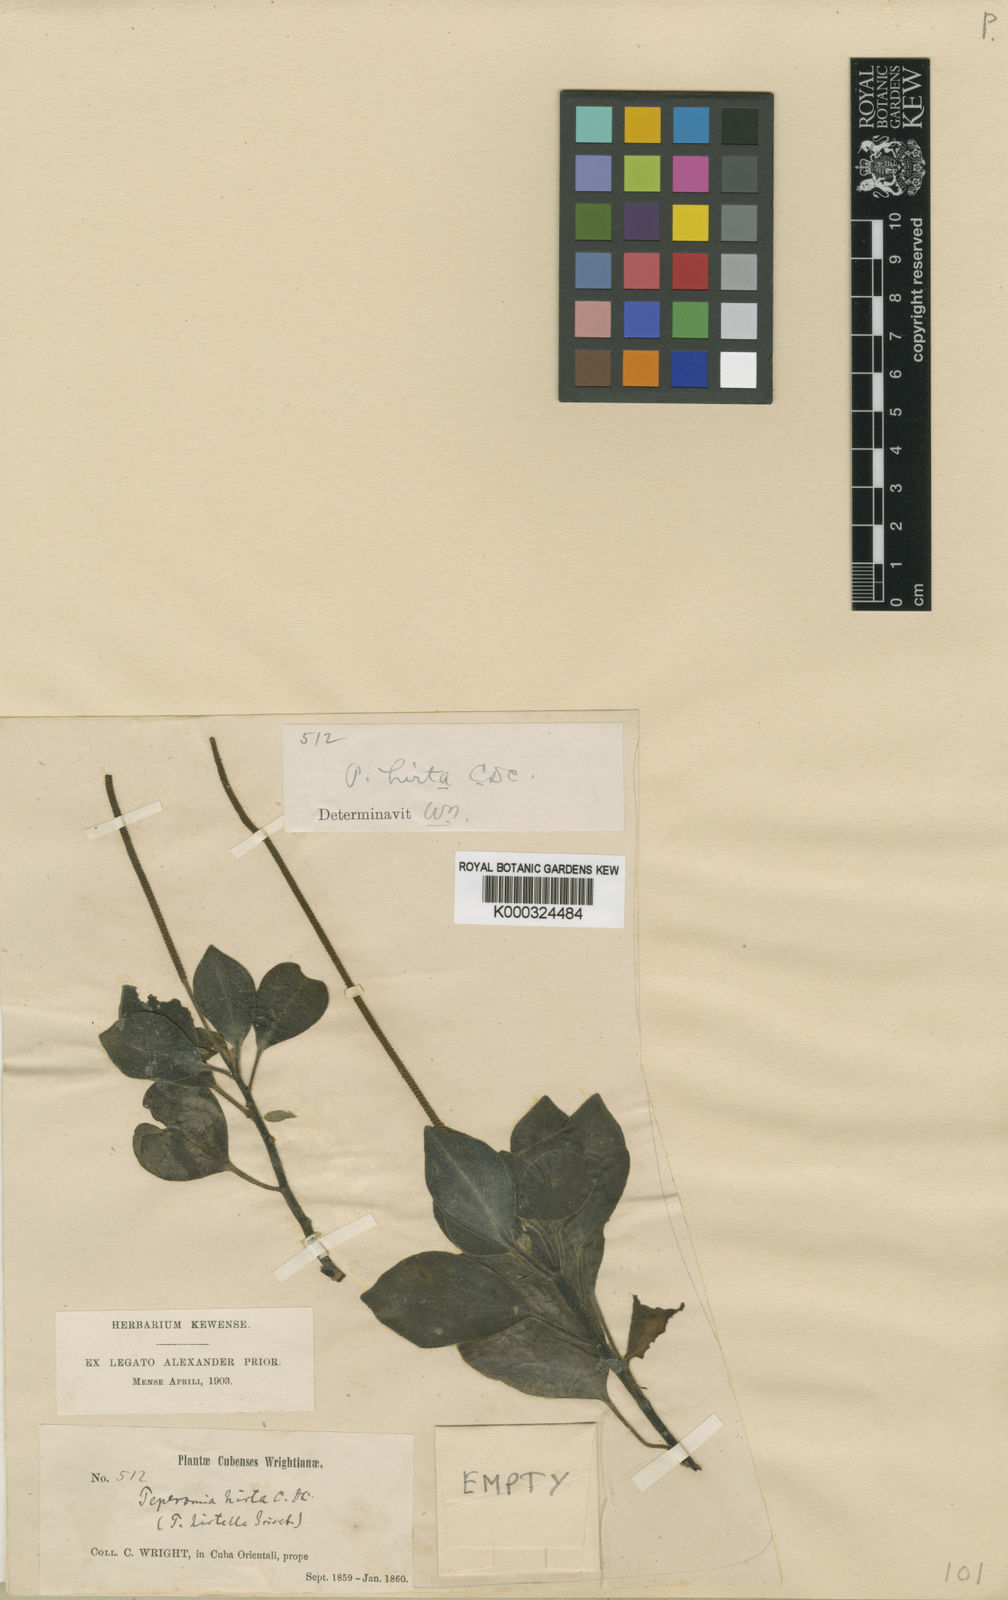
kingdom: Plantae
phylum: Tracheophyta
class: Magnoliopsida
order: Piperales
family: Piperaceae
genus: Peperomia
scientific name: Peperomia hirta
